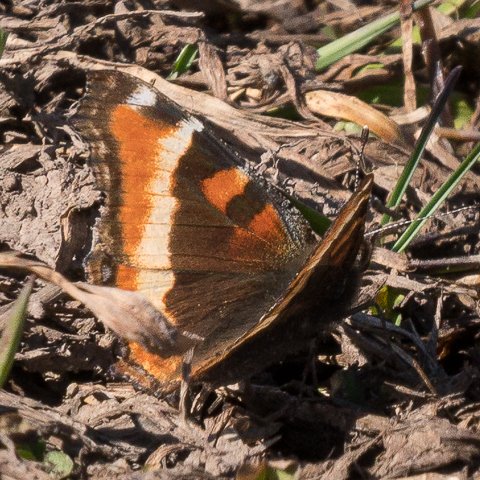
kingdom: Animalia
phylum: Arthropoda
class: Insecta
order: Lepidoptera
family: Nymphalidae
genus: Aglais
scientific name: Aglais milberti
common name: Milbert's Tortoiseshell
